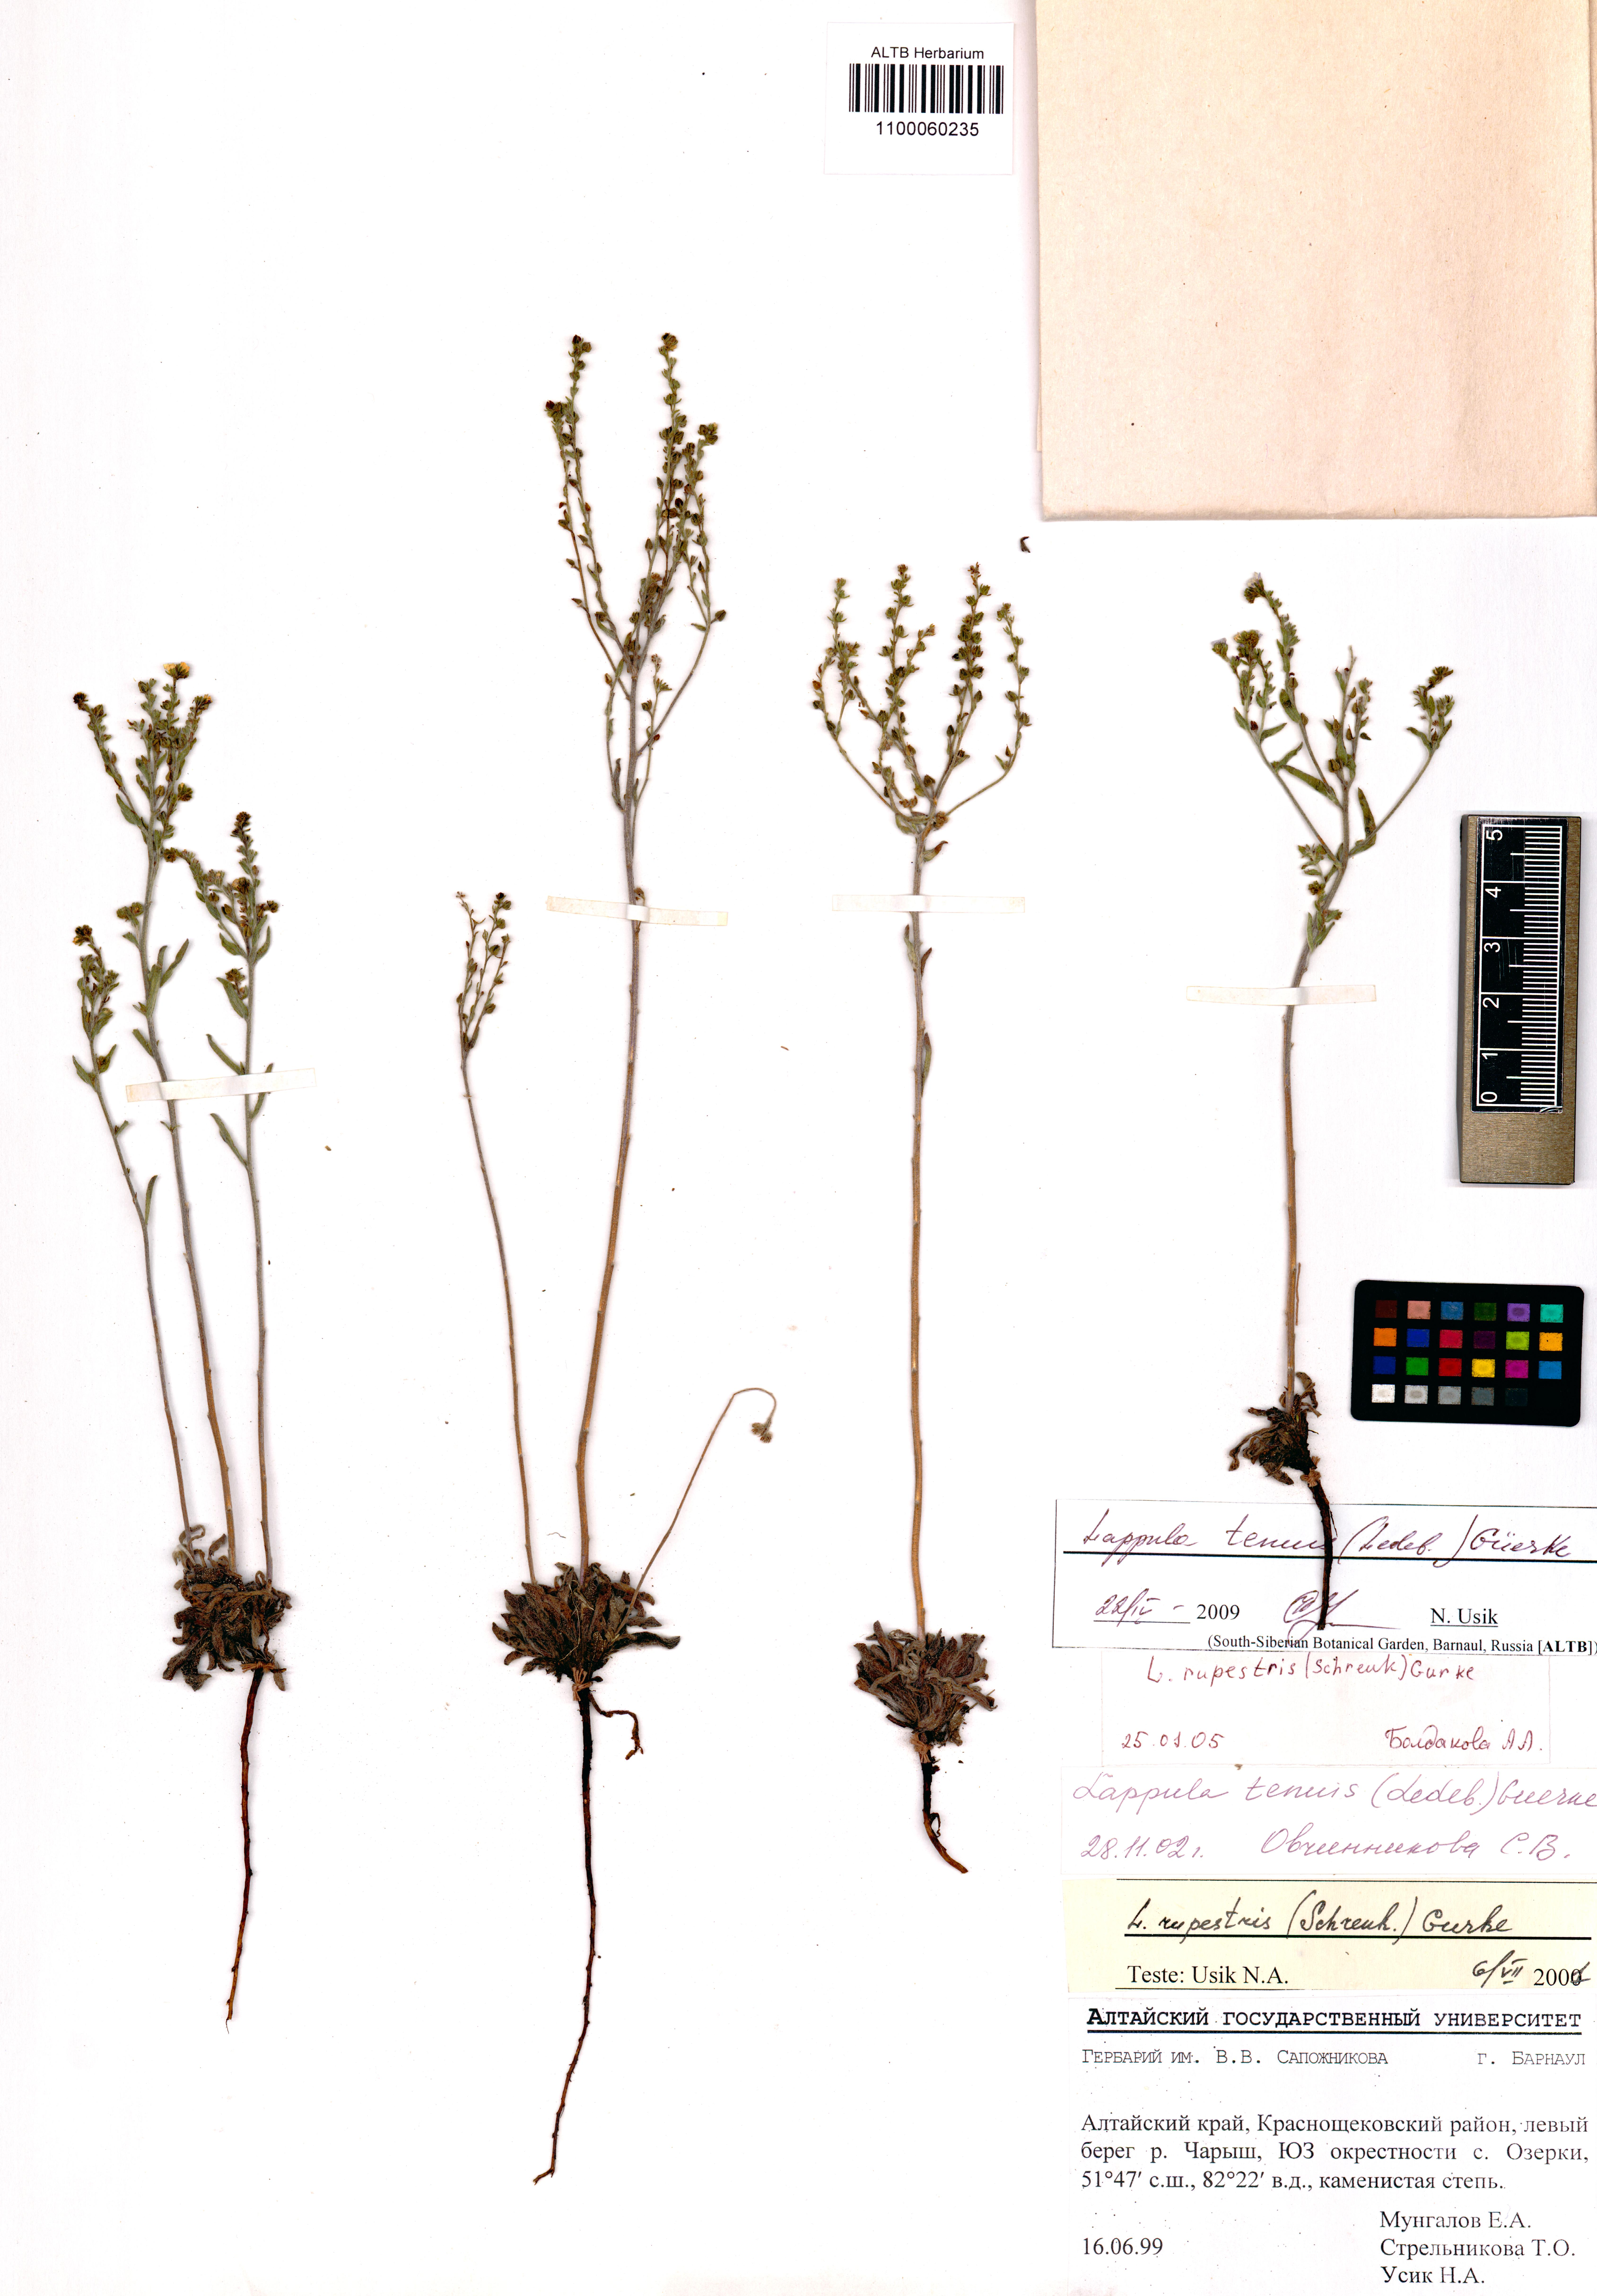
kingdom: Plantae
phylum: Tracheophyta
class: Magnoliopsida
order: Boraginales
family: Boraginaceae
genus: Lappula
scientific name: Lappula tenuis
